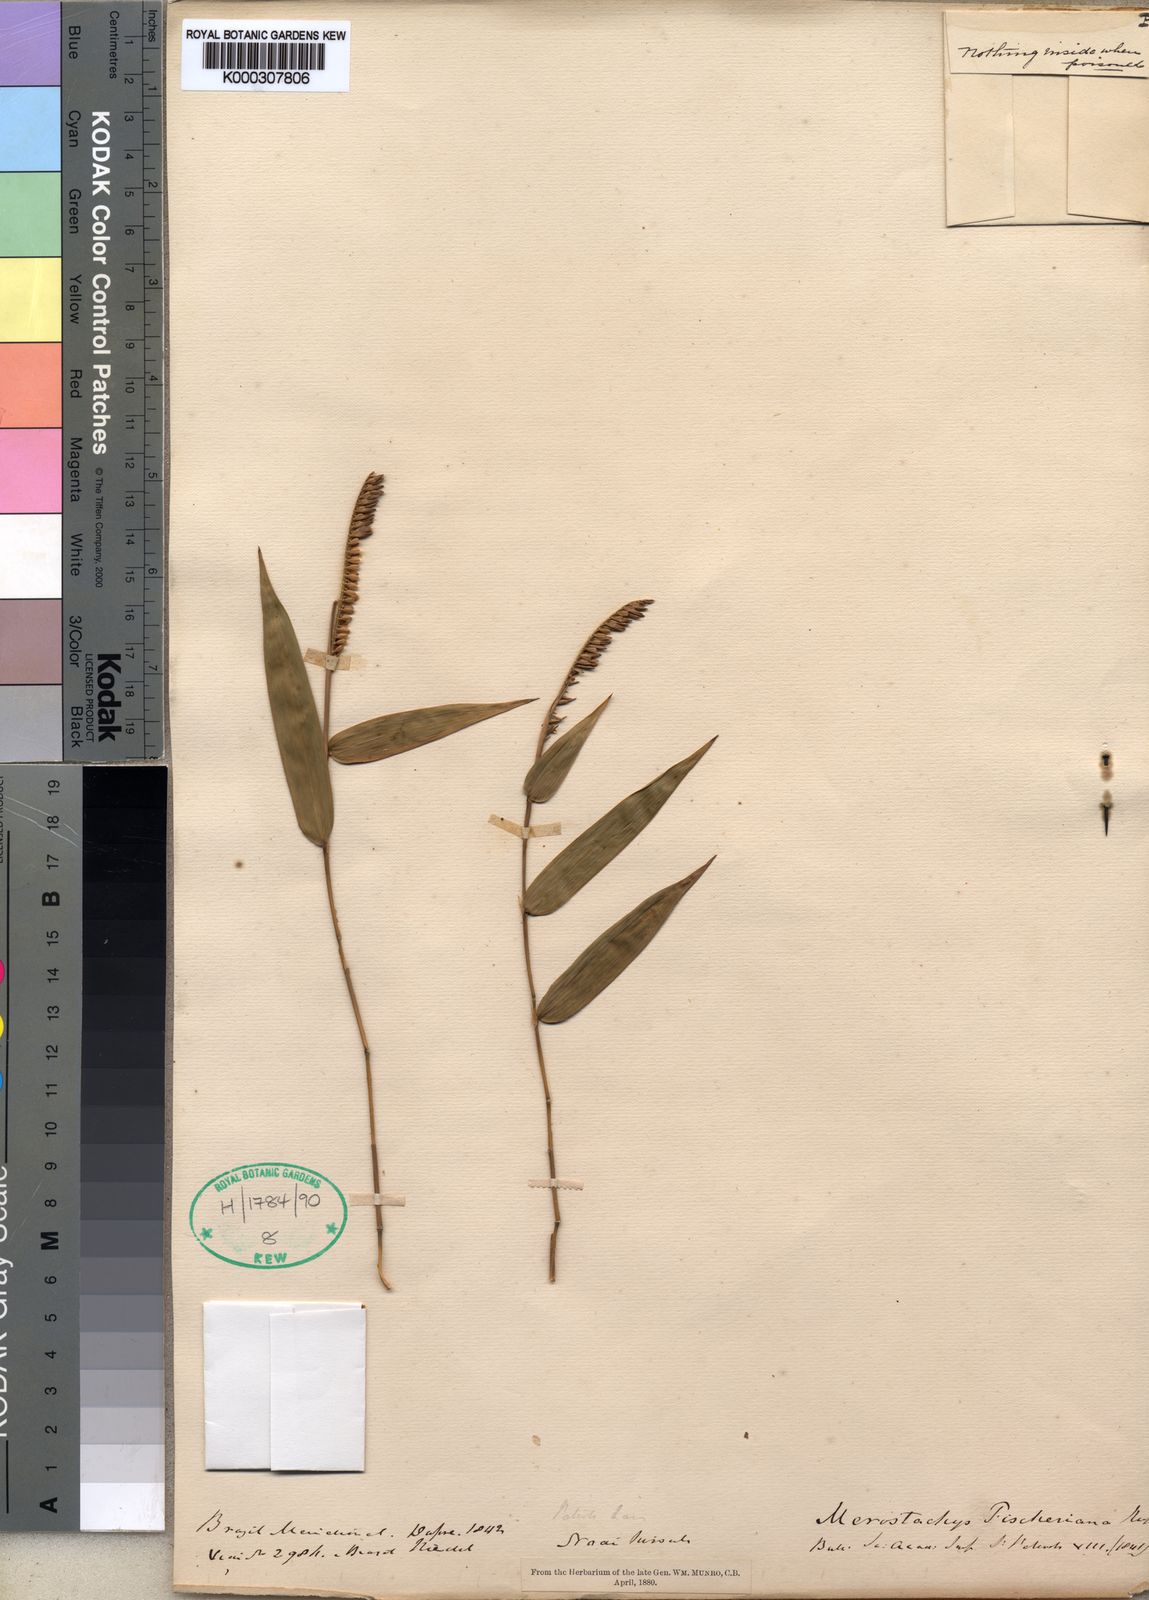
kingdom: Plantae
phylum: Tracheophyta
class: Liliopsida
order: Poales
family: Poaceae
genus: Merostachys
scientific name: Merostachys fischeriana
